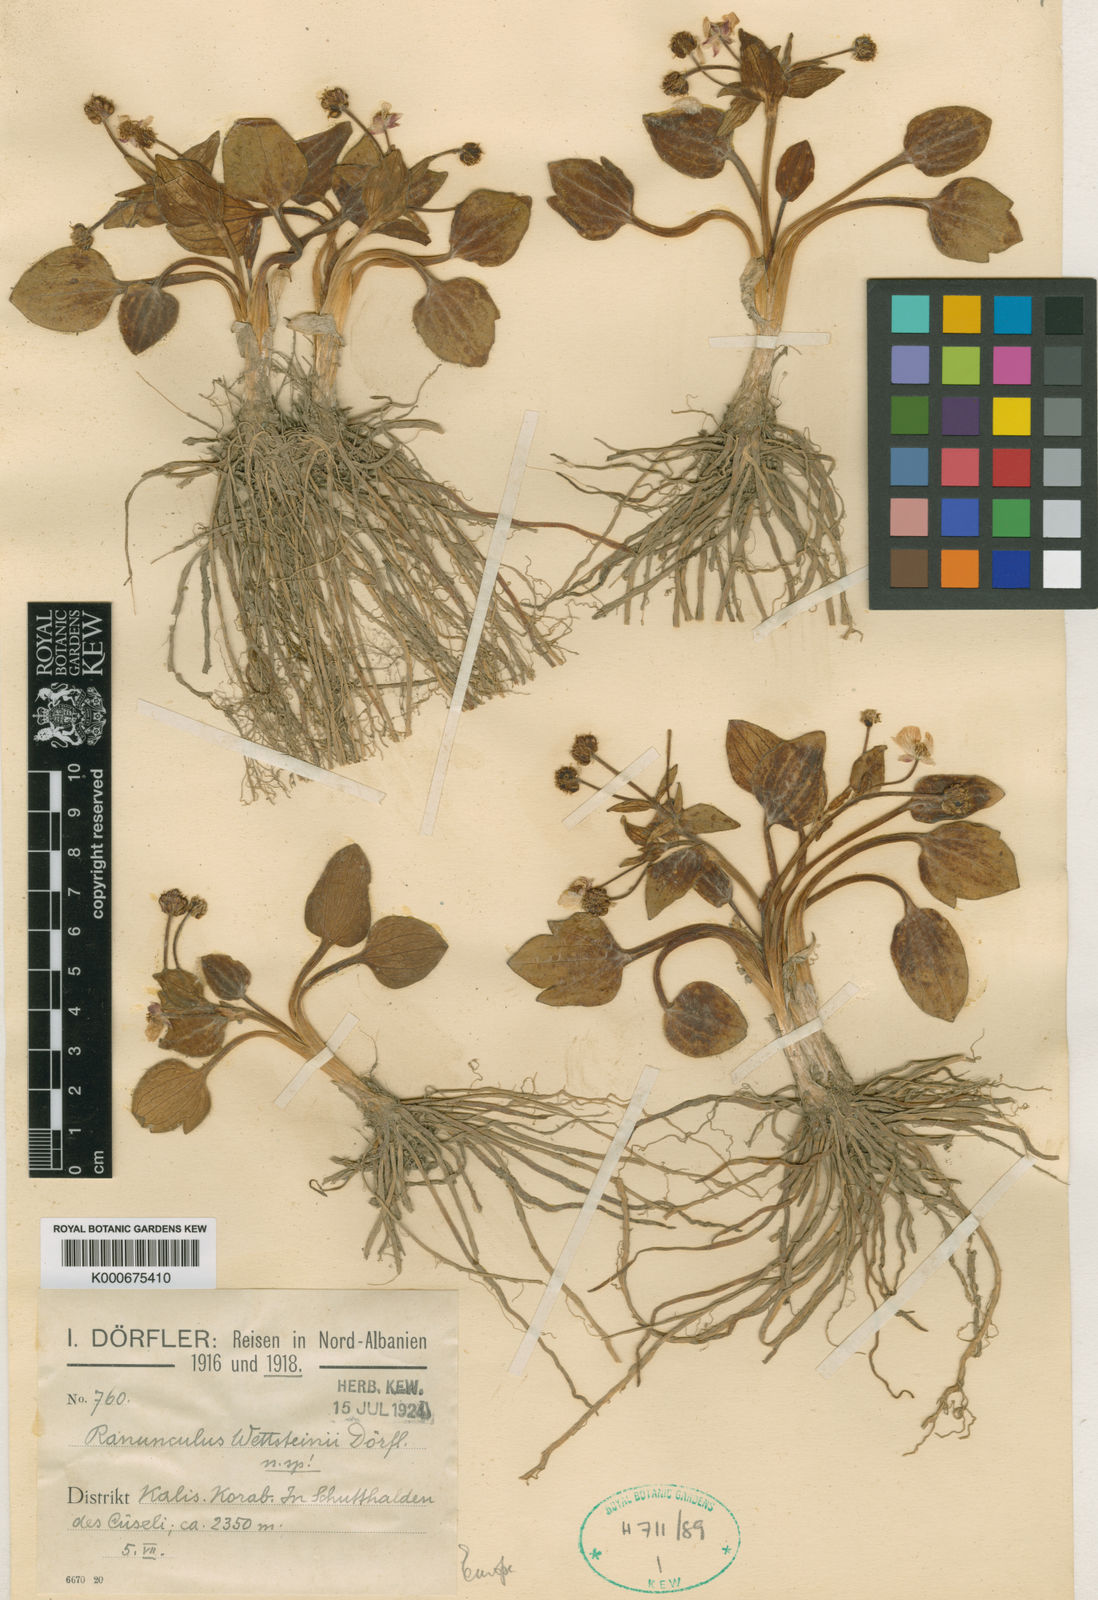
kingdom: Plantae
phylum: Tracheophyta
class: Magnoliopsida
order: Ranunculales
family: Ranunculaceae
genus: Ranunculus
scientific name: Ranunculus
